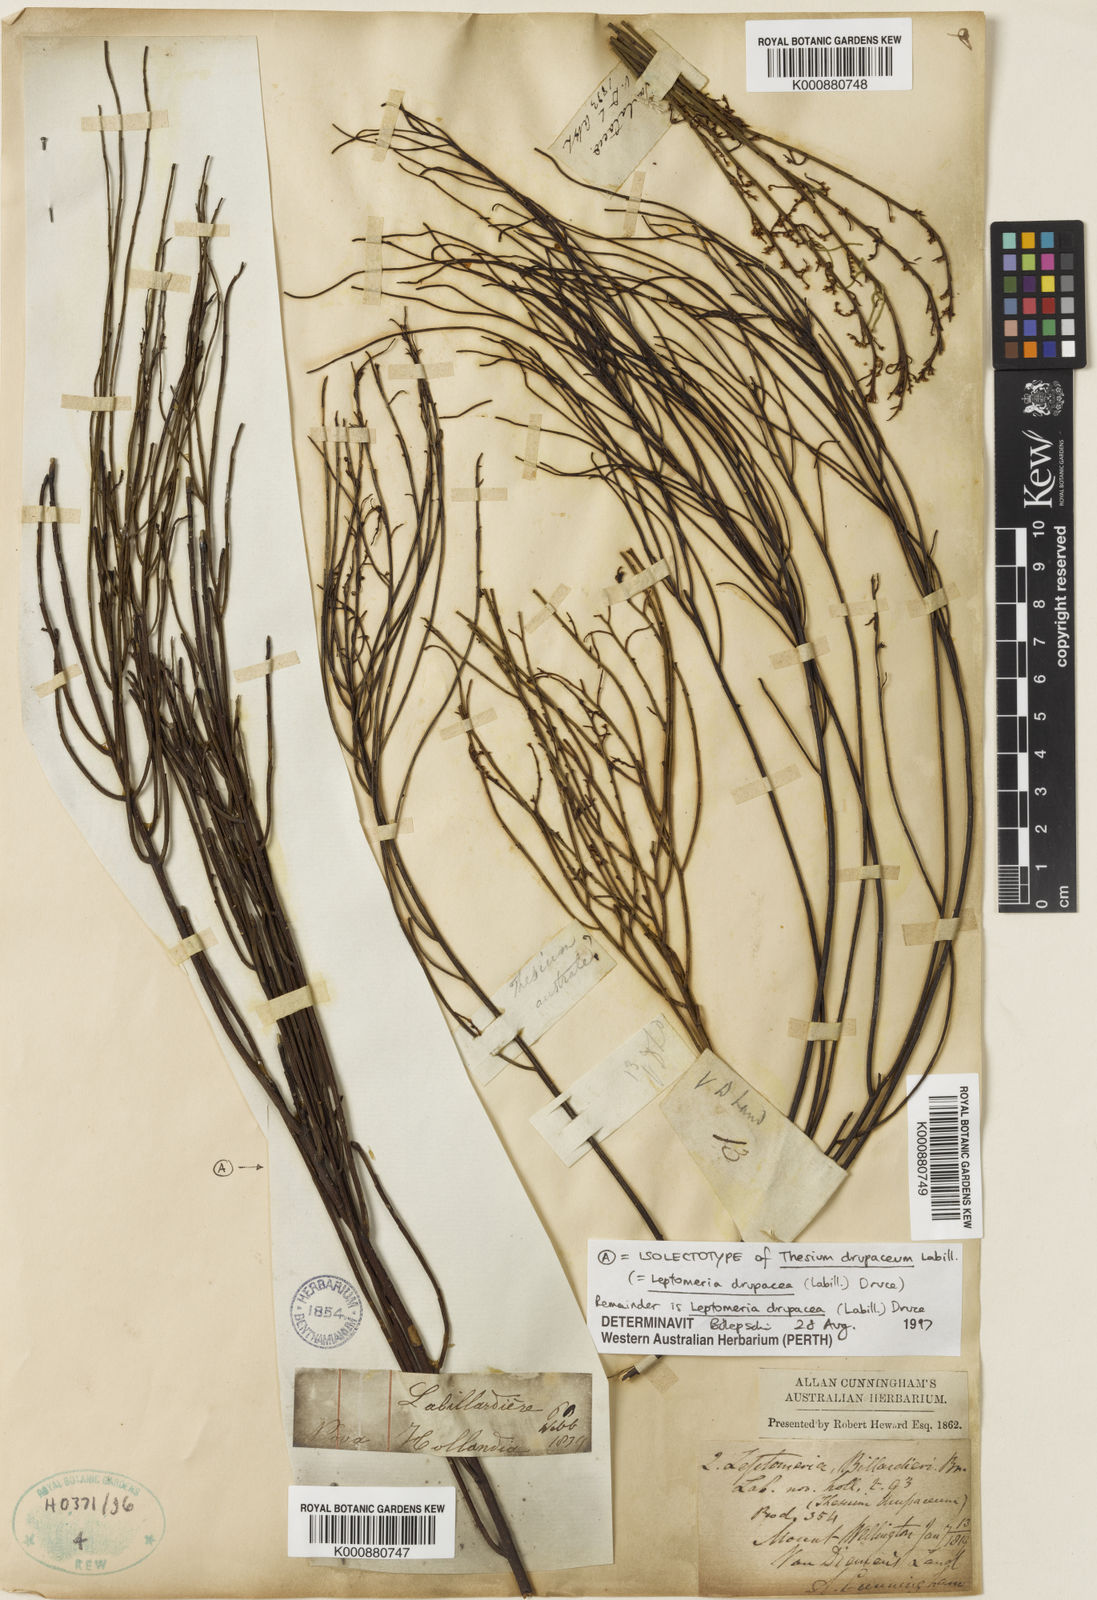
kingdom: Plantae
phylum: Tracheophyta
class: Magnoliopsida
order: Santalales
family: Amphorogynaceae
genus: Leptomeria
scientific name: Leptomeria drupacea
